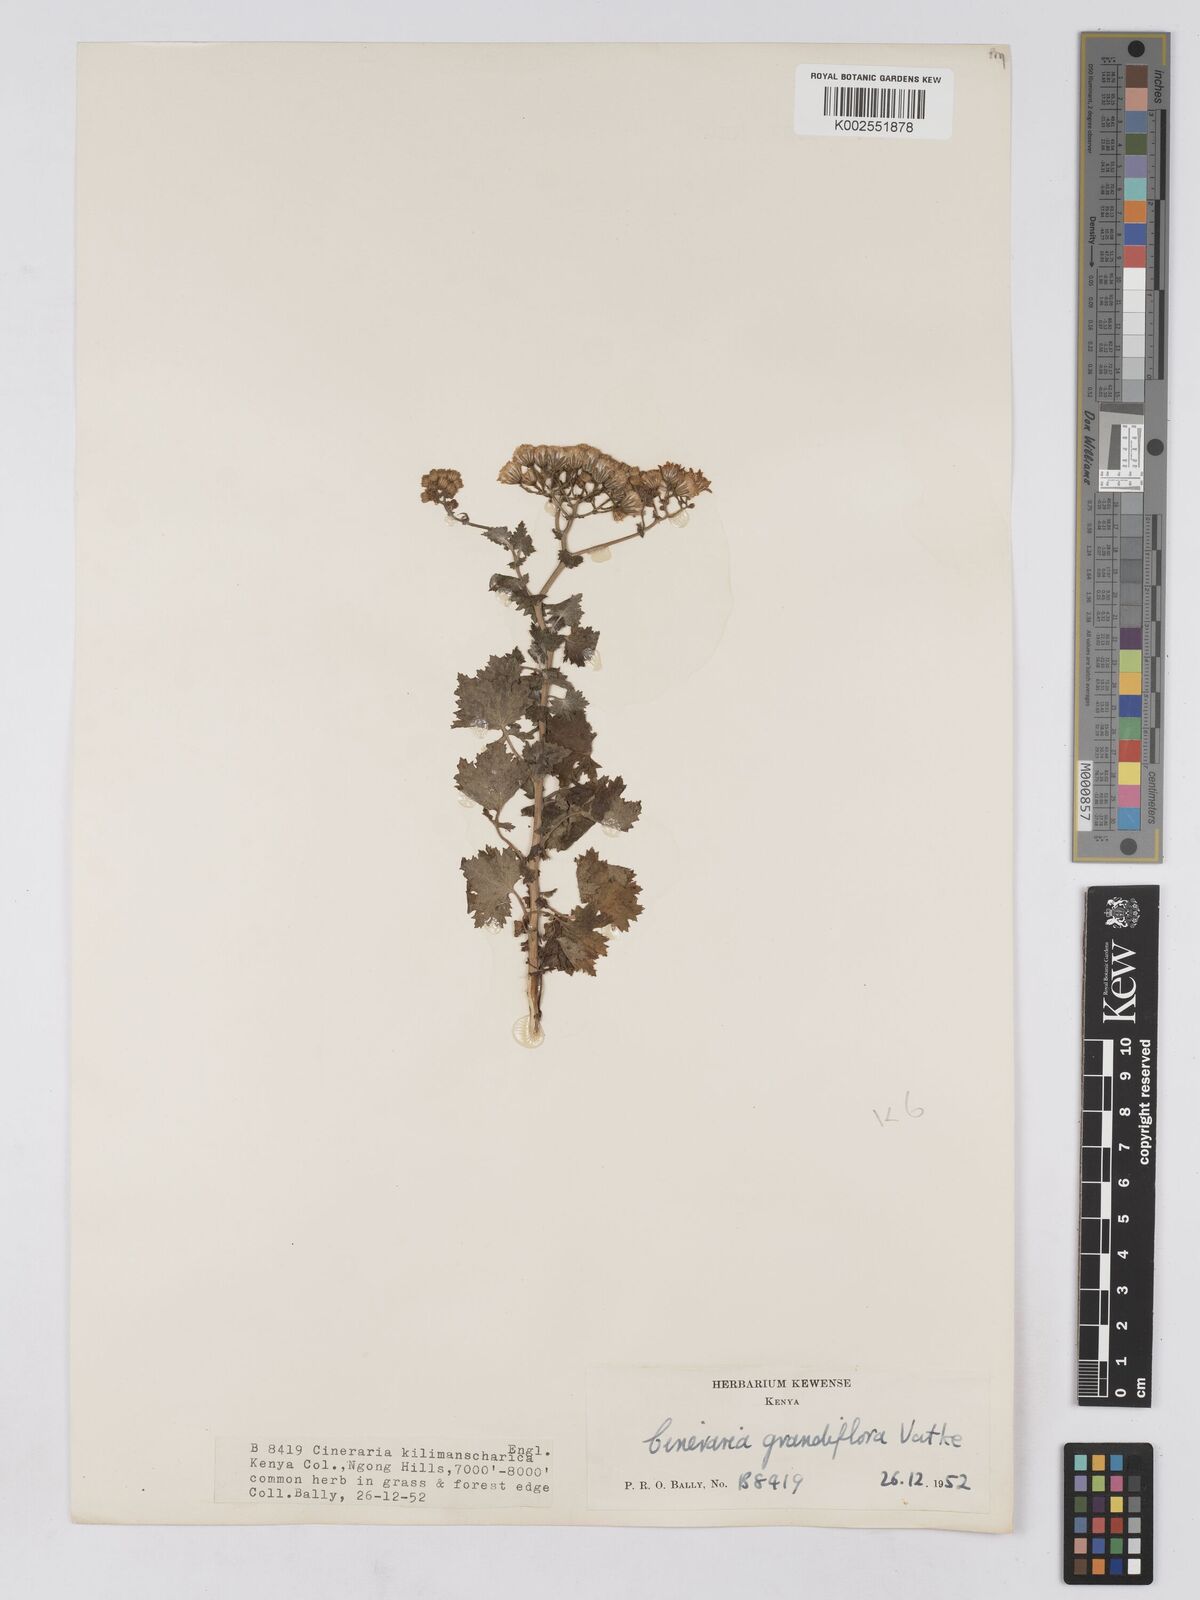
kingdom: Plantae
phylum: Tracheophyta
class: Magnoliopsida
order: Asterales
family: Asteraceae
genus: Cineraria
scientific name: Cineraria deltoidea
